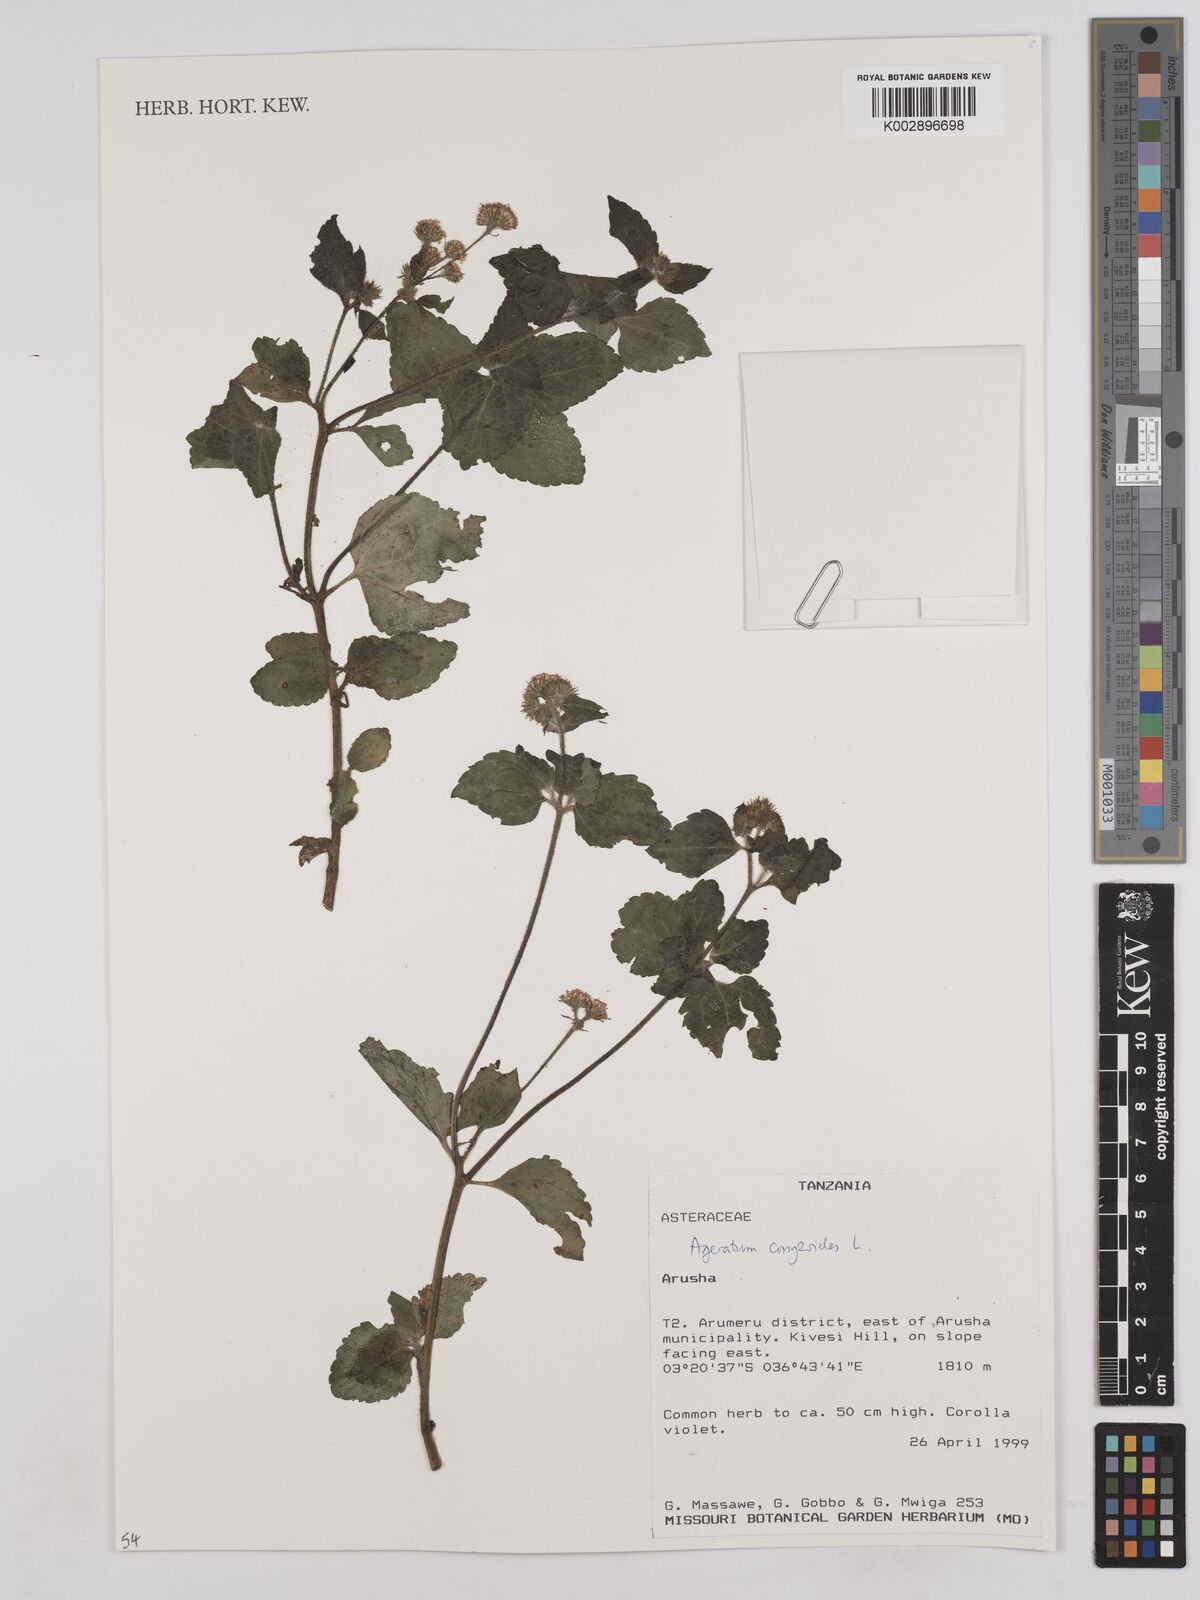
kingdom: Plantae
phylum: Tracheophyta
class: Magnoliopsida
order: Asterales
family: Asteraceae
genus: Ageratum
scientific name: Ageratum conyzoides
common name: Tropical whiteweed
